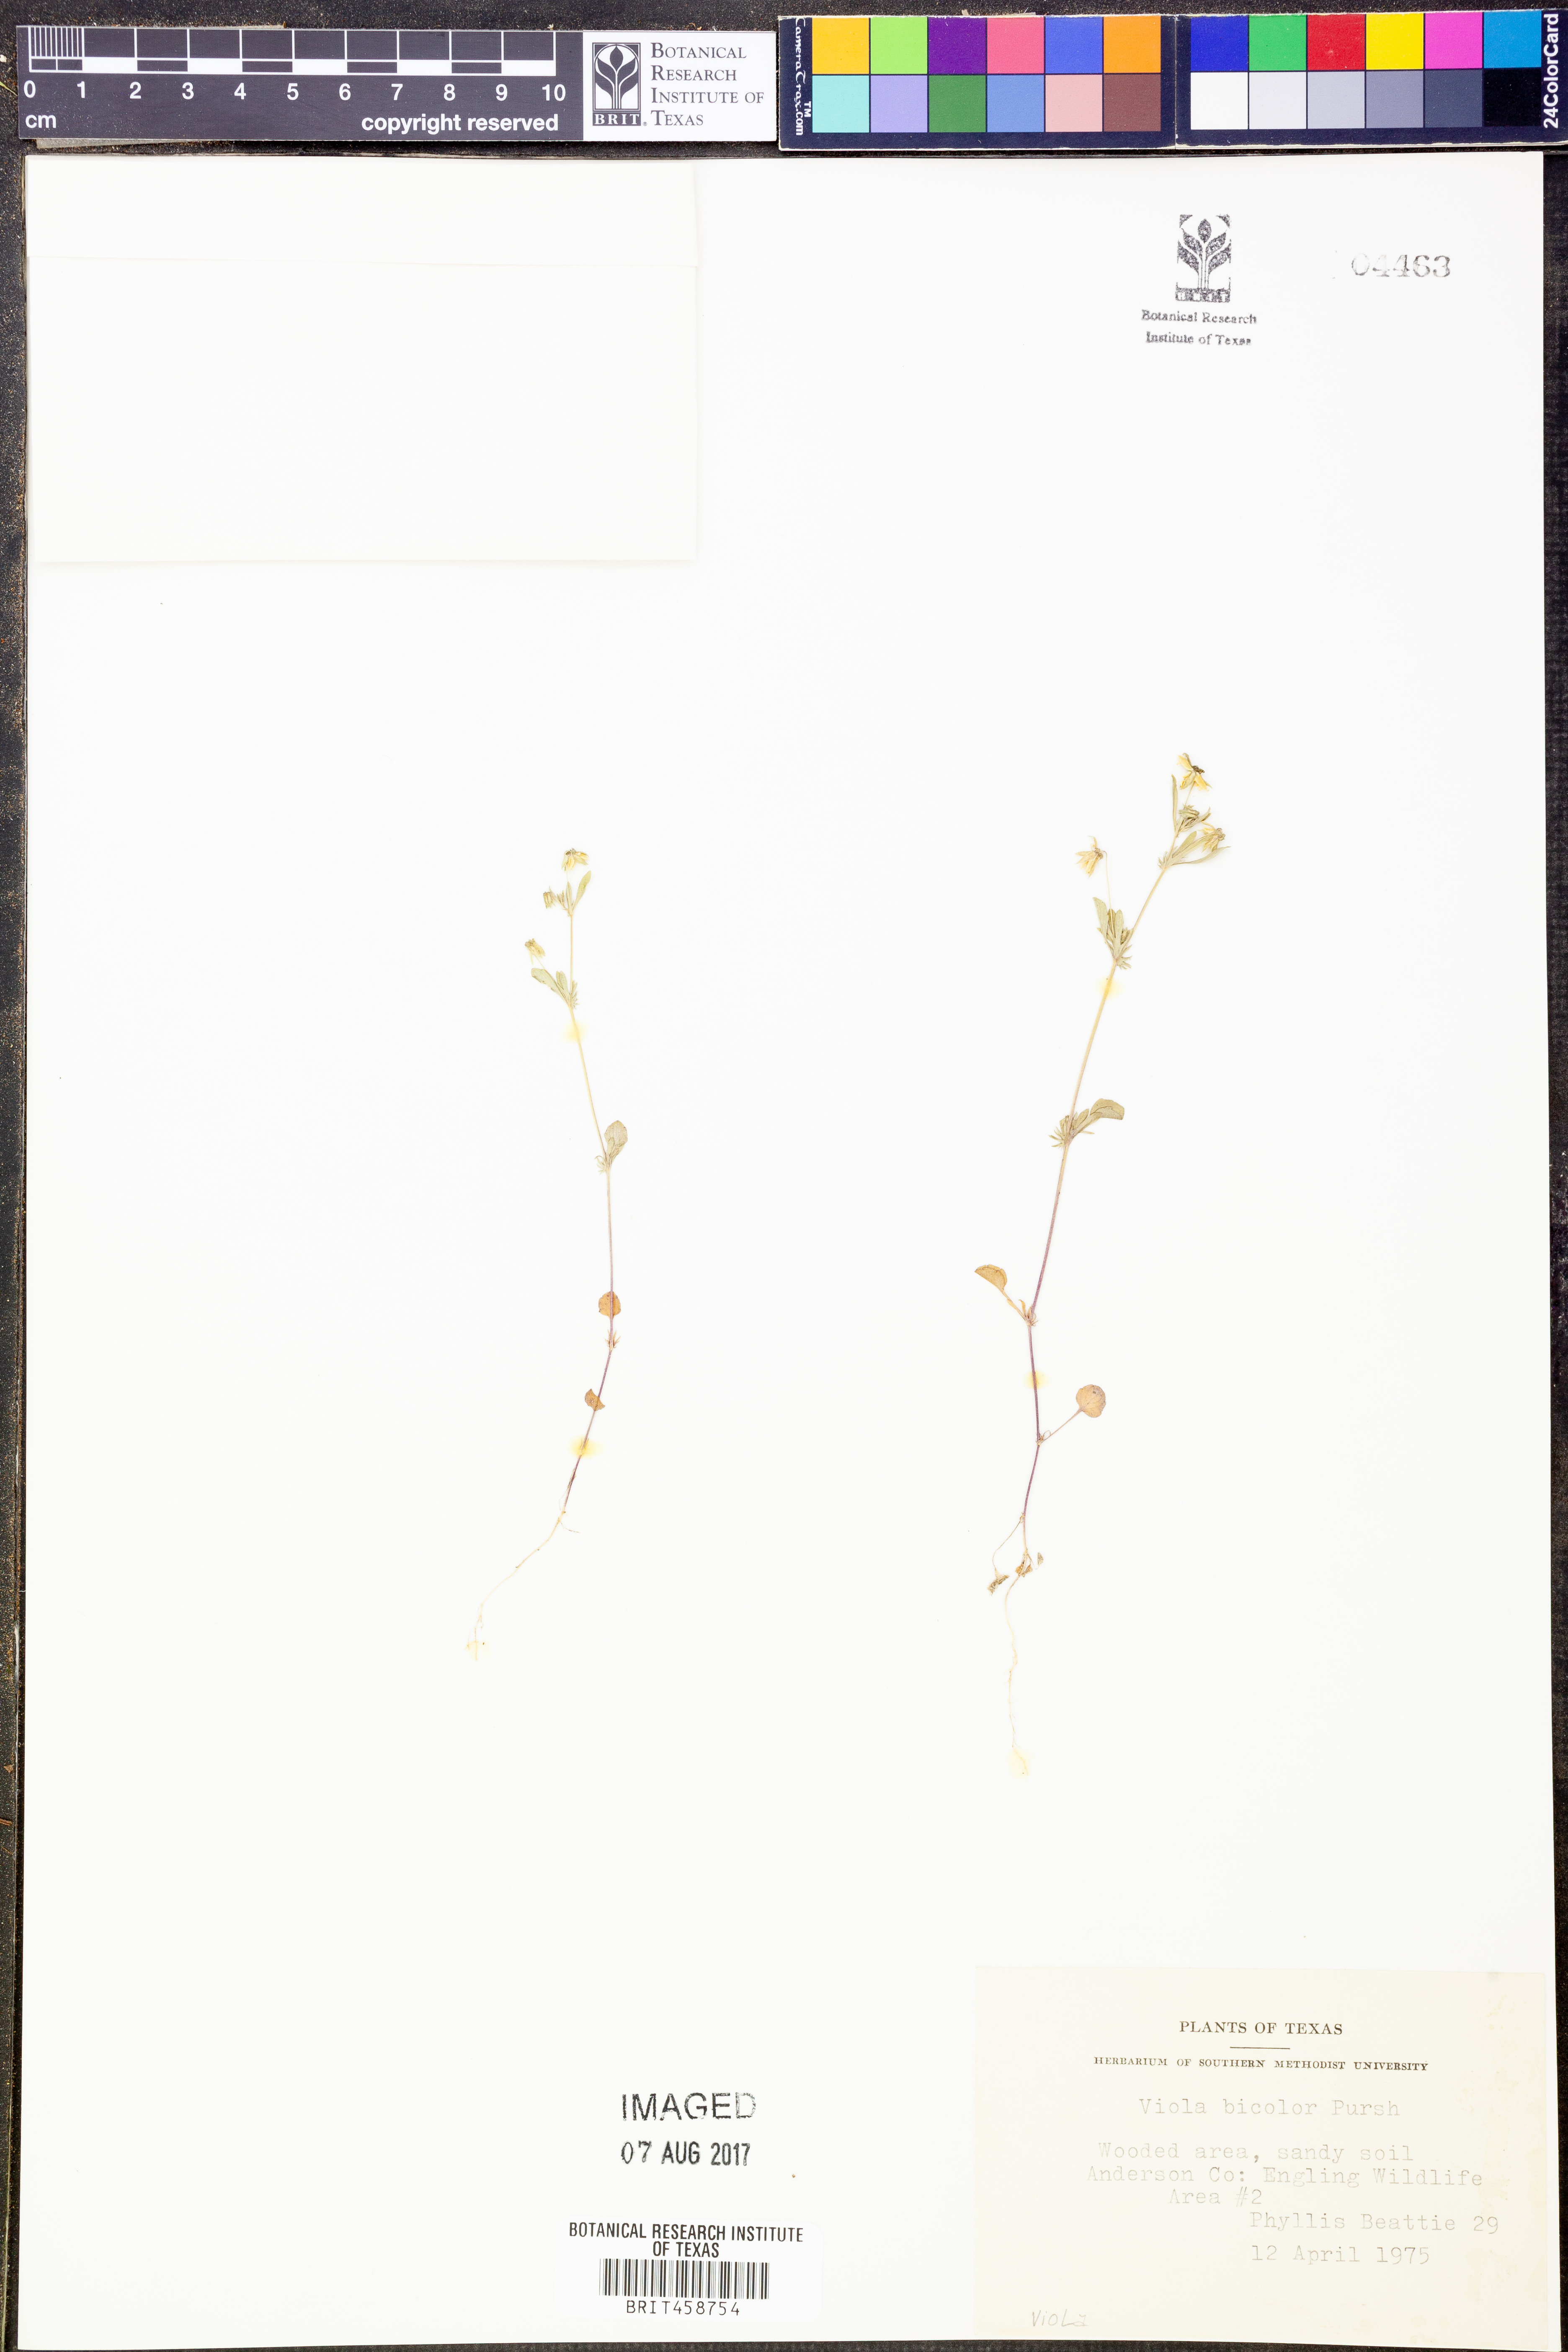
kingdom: Plantae
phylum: Tracheophyta
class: Magnoliopsida
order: Malpighiales
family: Violaceae
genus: Viola
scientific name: Viola rafinesquei
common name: American field pansy
